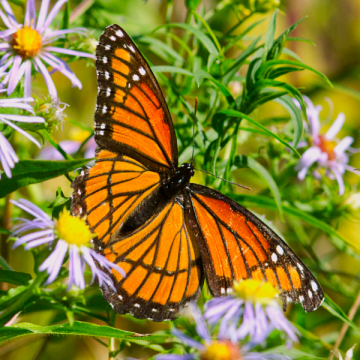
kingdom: Animalia
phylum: Arthropoda
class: Insecta
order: Lepidoptera
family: Nymphalidae
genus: Limenitis
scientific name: Limenitis archippus
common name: Viceroy
